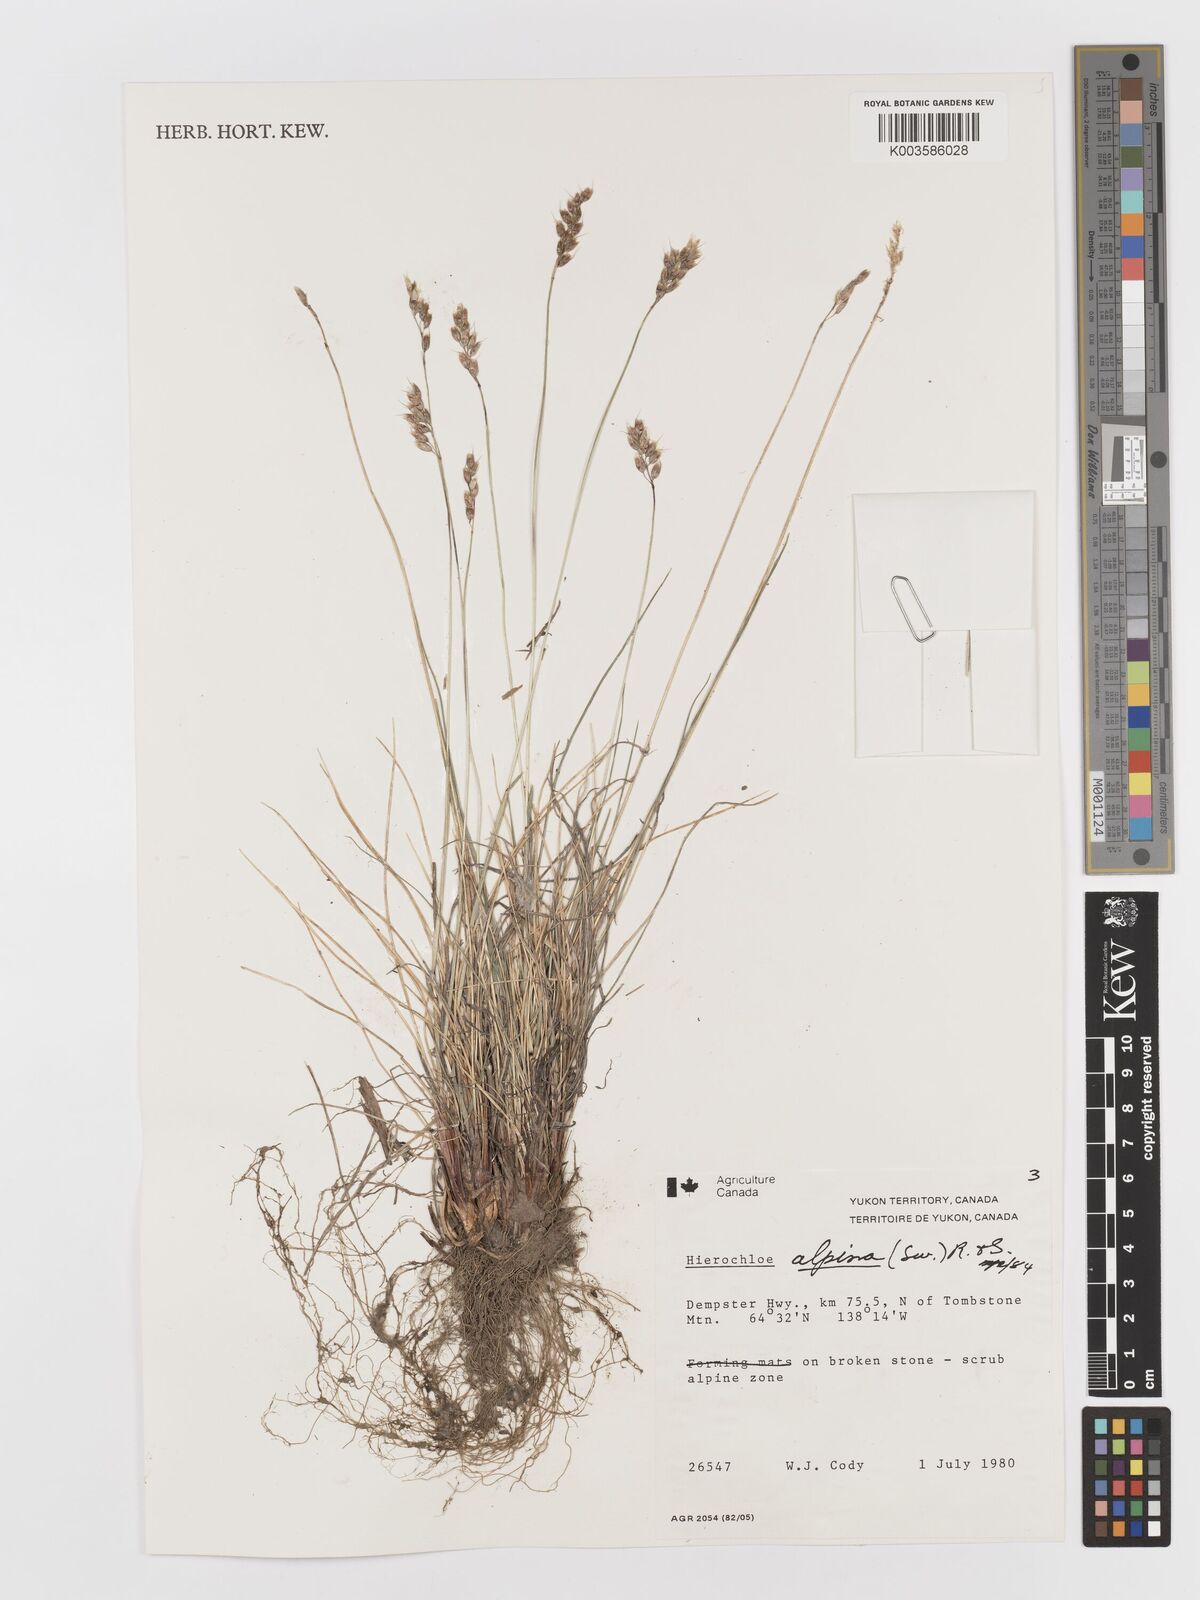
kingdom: Plantae
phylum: Tracheophyta
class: Liliopsida
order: Poales
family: Poaceae
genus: Anthoxanthum
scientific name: Anthoxanthum monticola
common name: Alpine sweetgrass
